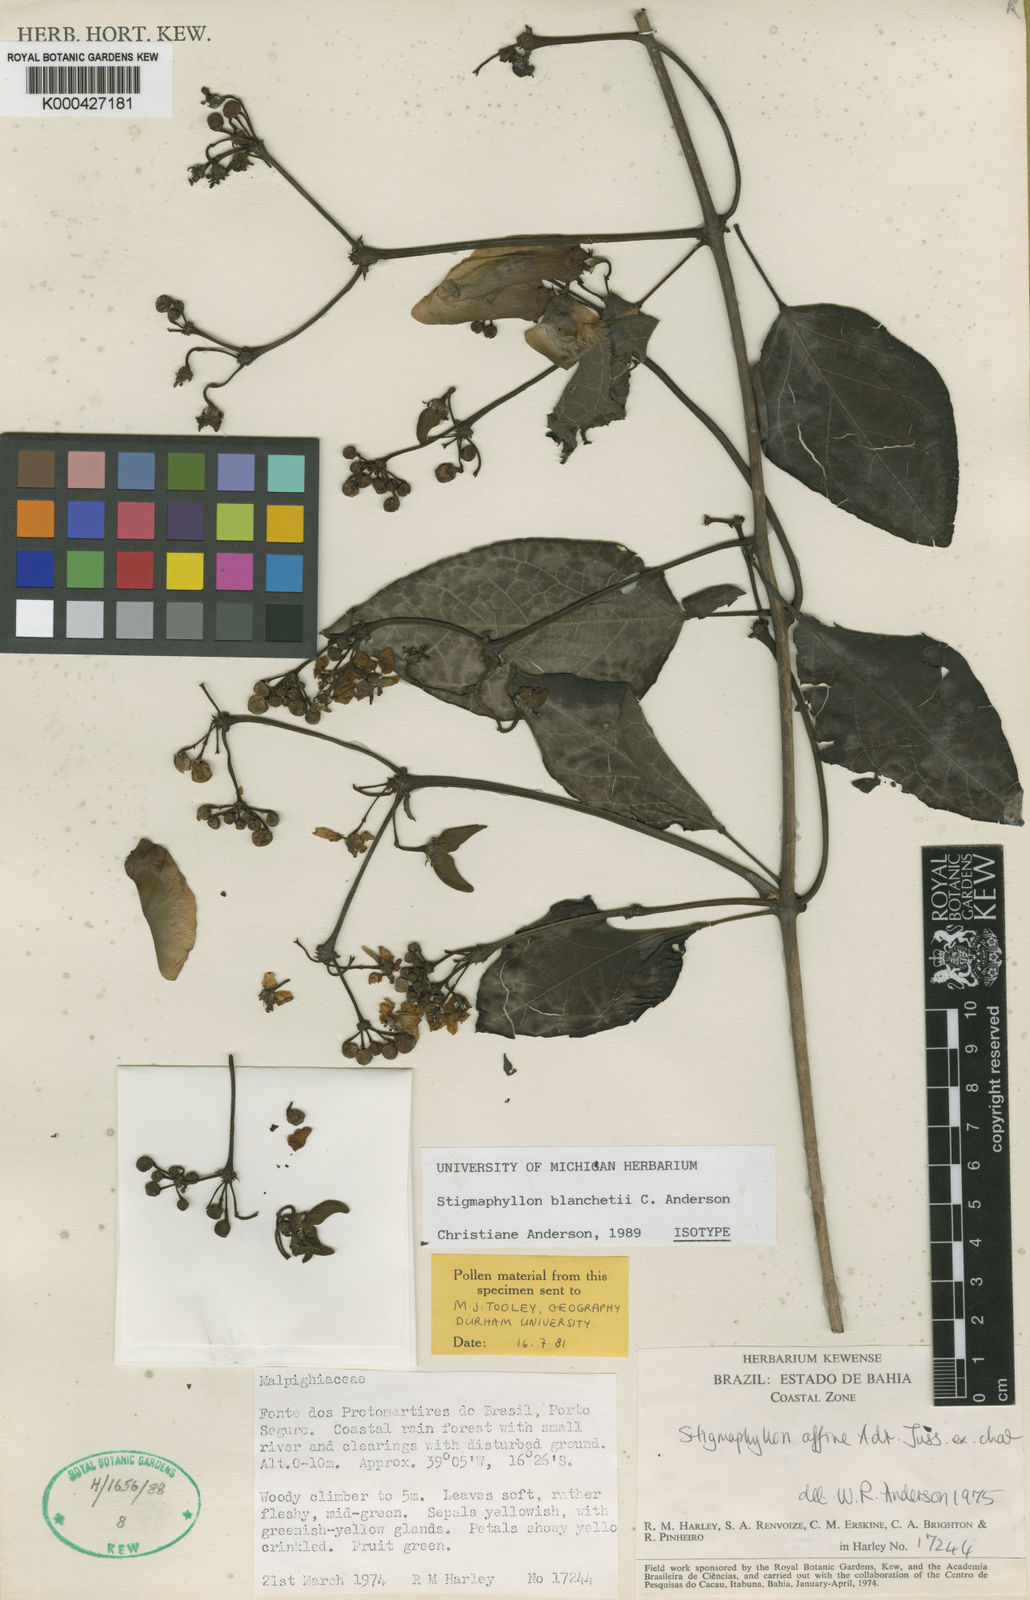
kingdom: Plantae
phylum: Tracheophyta
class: Magnoliopsida
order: Malpighiales
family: Malpighiaceae
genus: Stigmaphyllon
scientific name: Stigmaphyllon blanchetii
